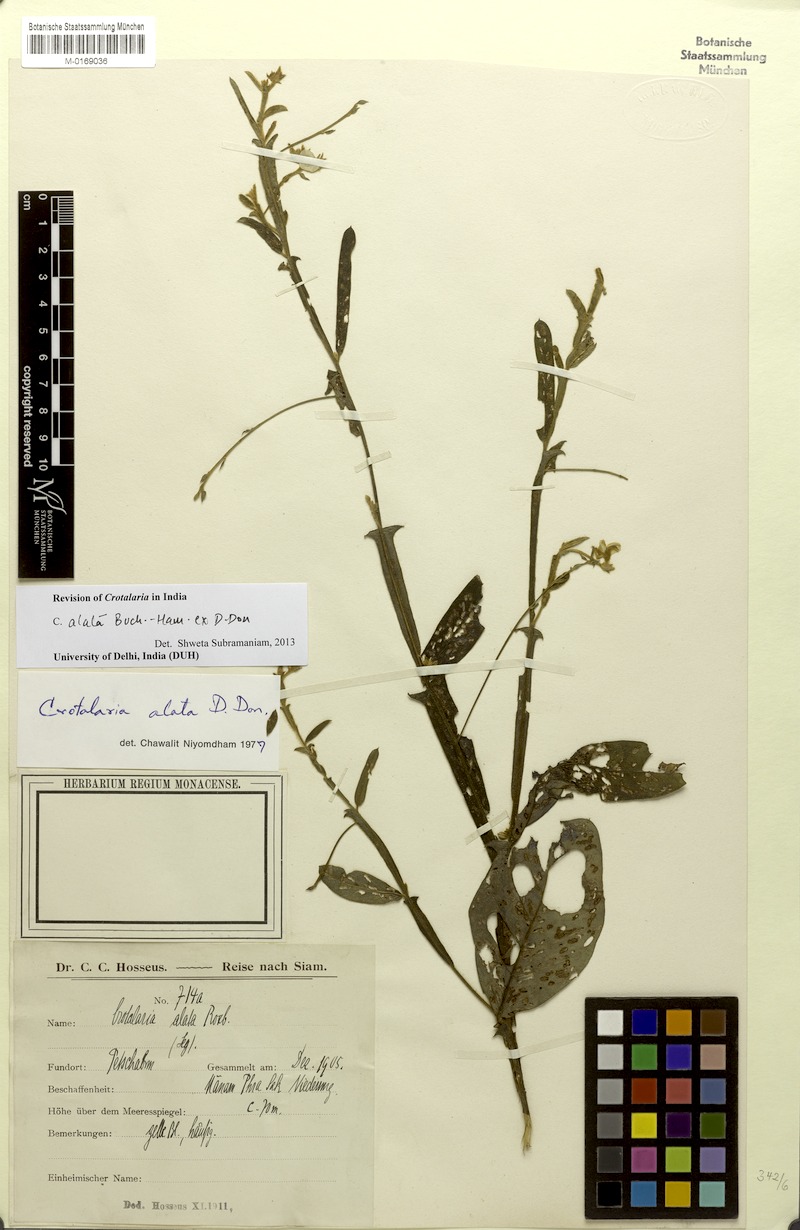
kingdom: Plantae
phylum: Tracheophyta
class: Magnoliopsida
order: Fabales
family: Fabaceae
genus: Crotalaria
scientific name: Crotalaria alata
